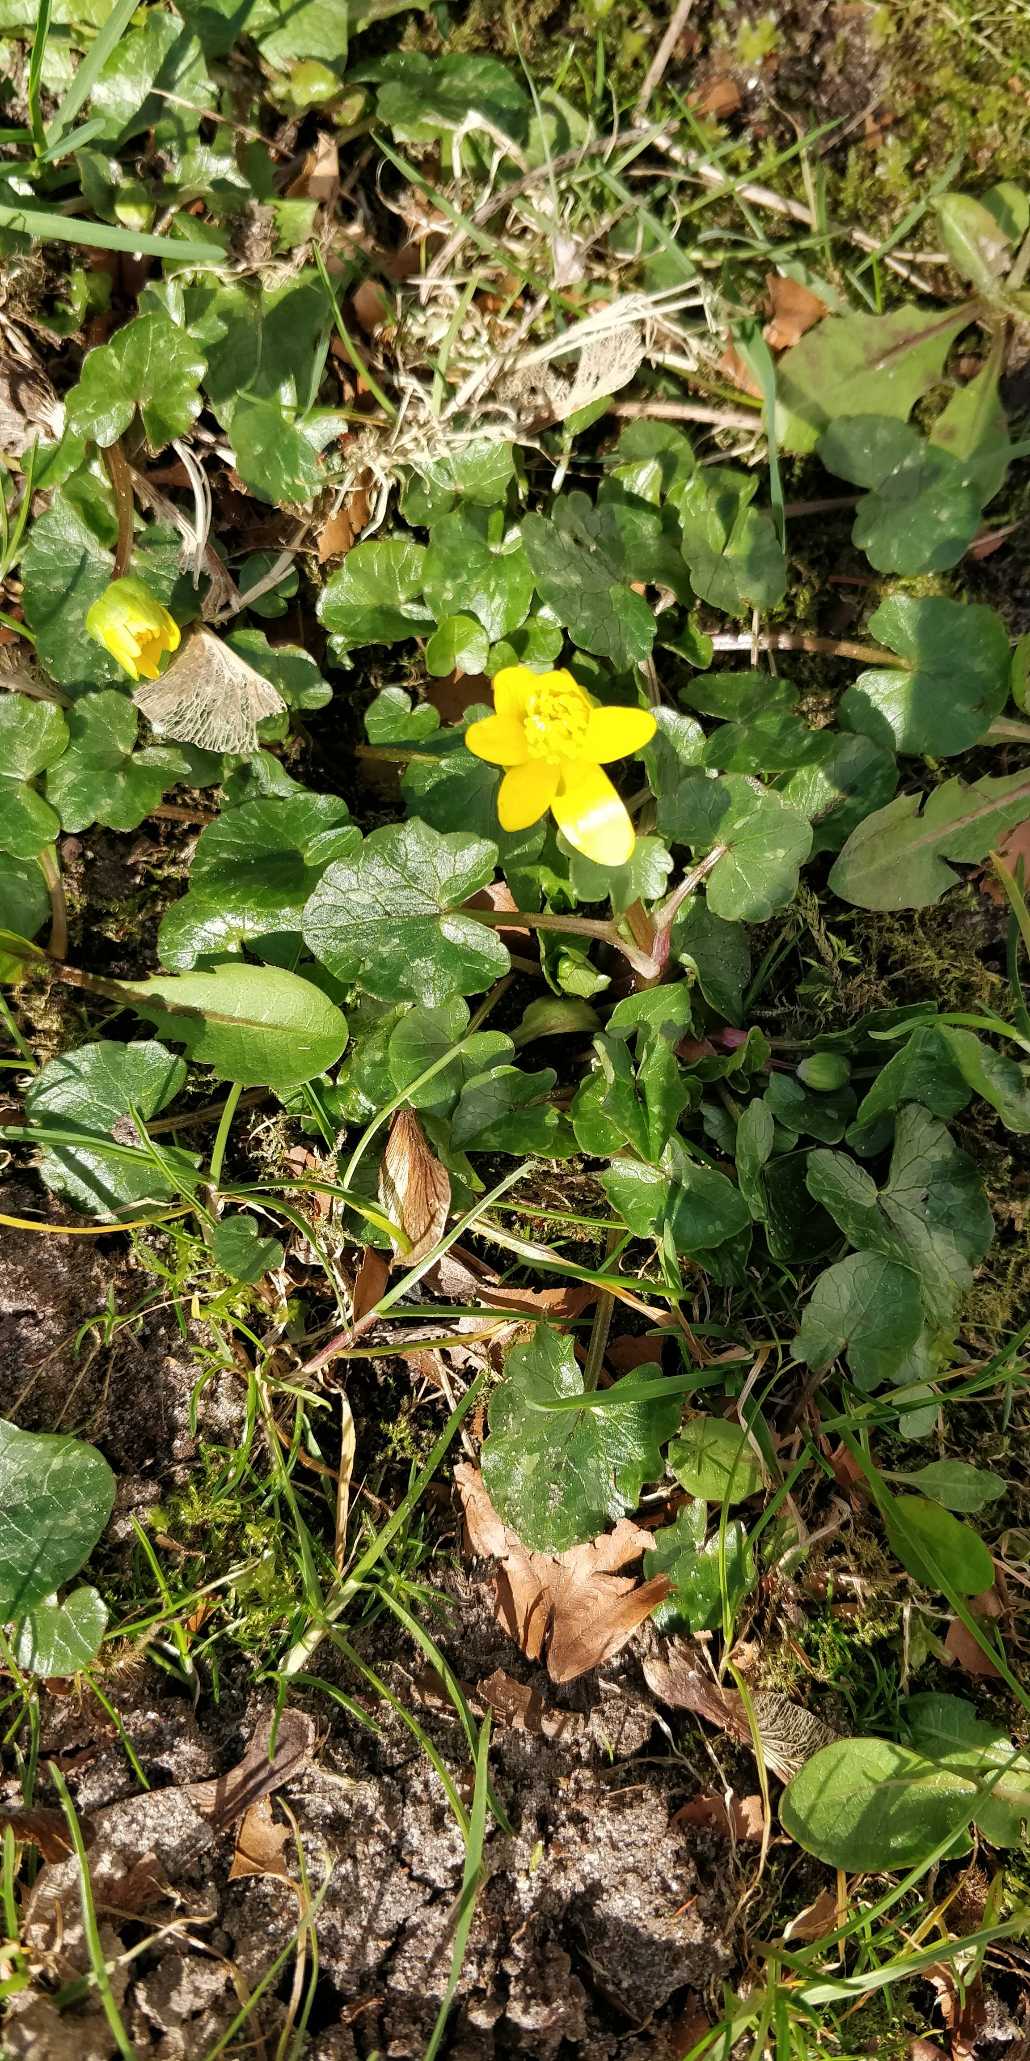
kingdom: Plantae
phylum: Tracheophyta
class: Magnoliopsida
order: Ranunculales
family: Ranunculaceae
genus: Ficaria
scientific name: Ficaria verna
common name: Vorterod
